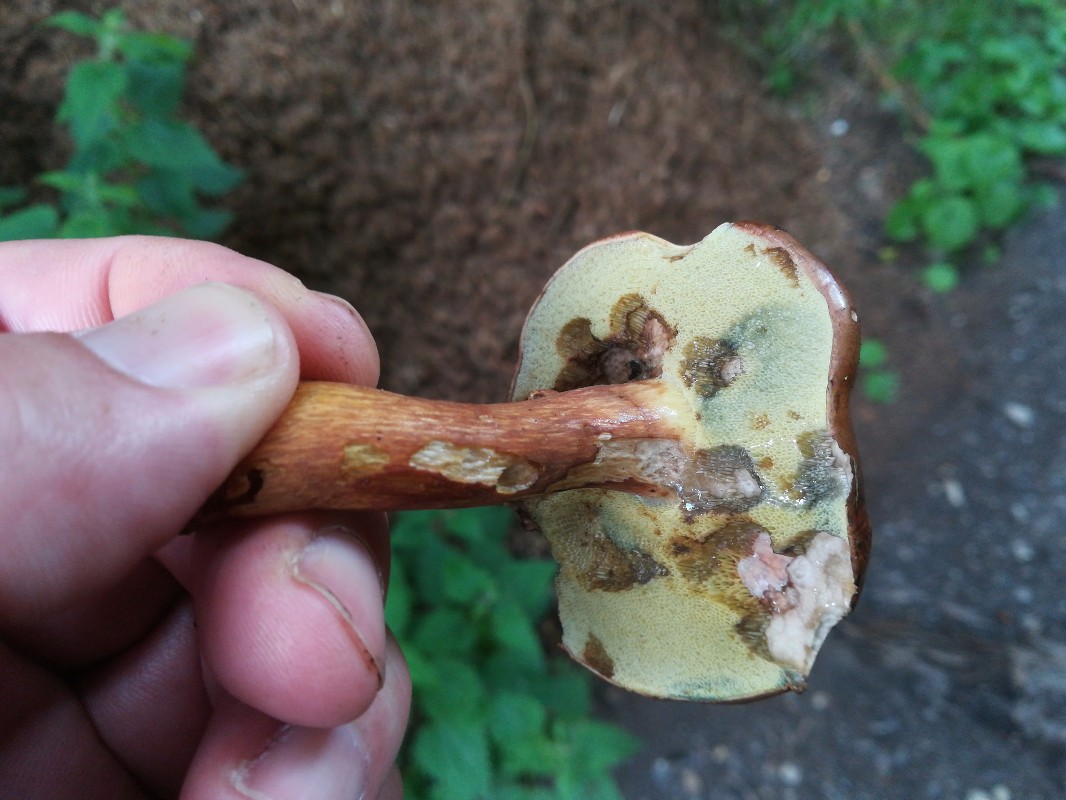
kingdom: Fungi
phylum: Basidiomycota
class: Agaricomycetes
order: Boletales
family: Boletaceae
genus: Imleria
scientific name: Imleria badia
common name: brunstokket rørhat
